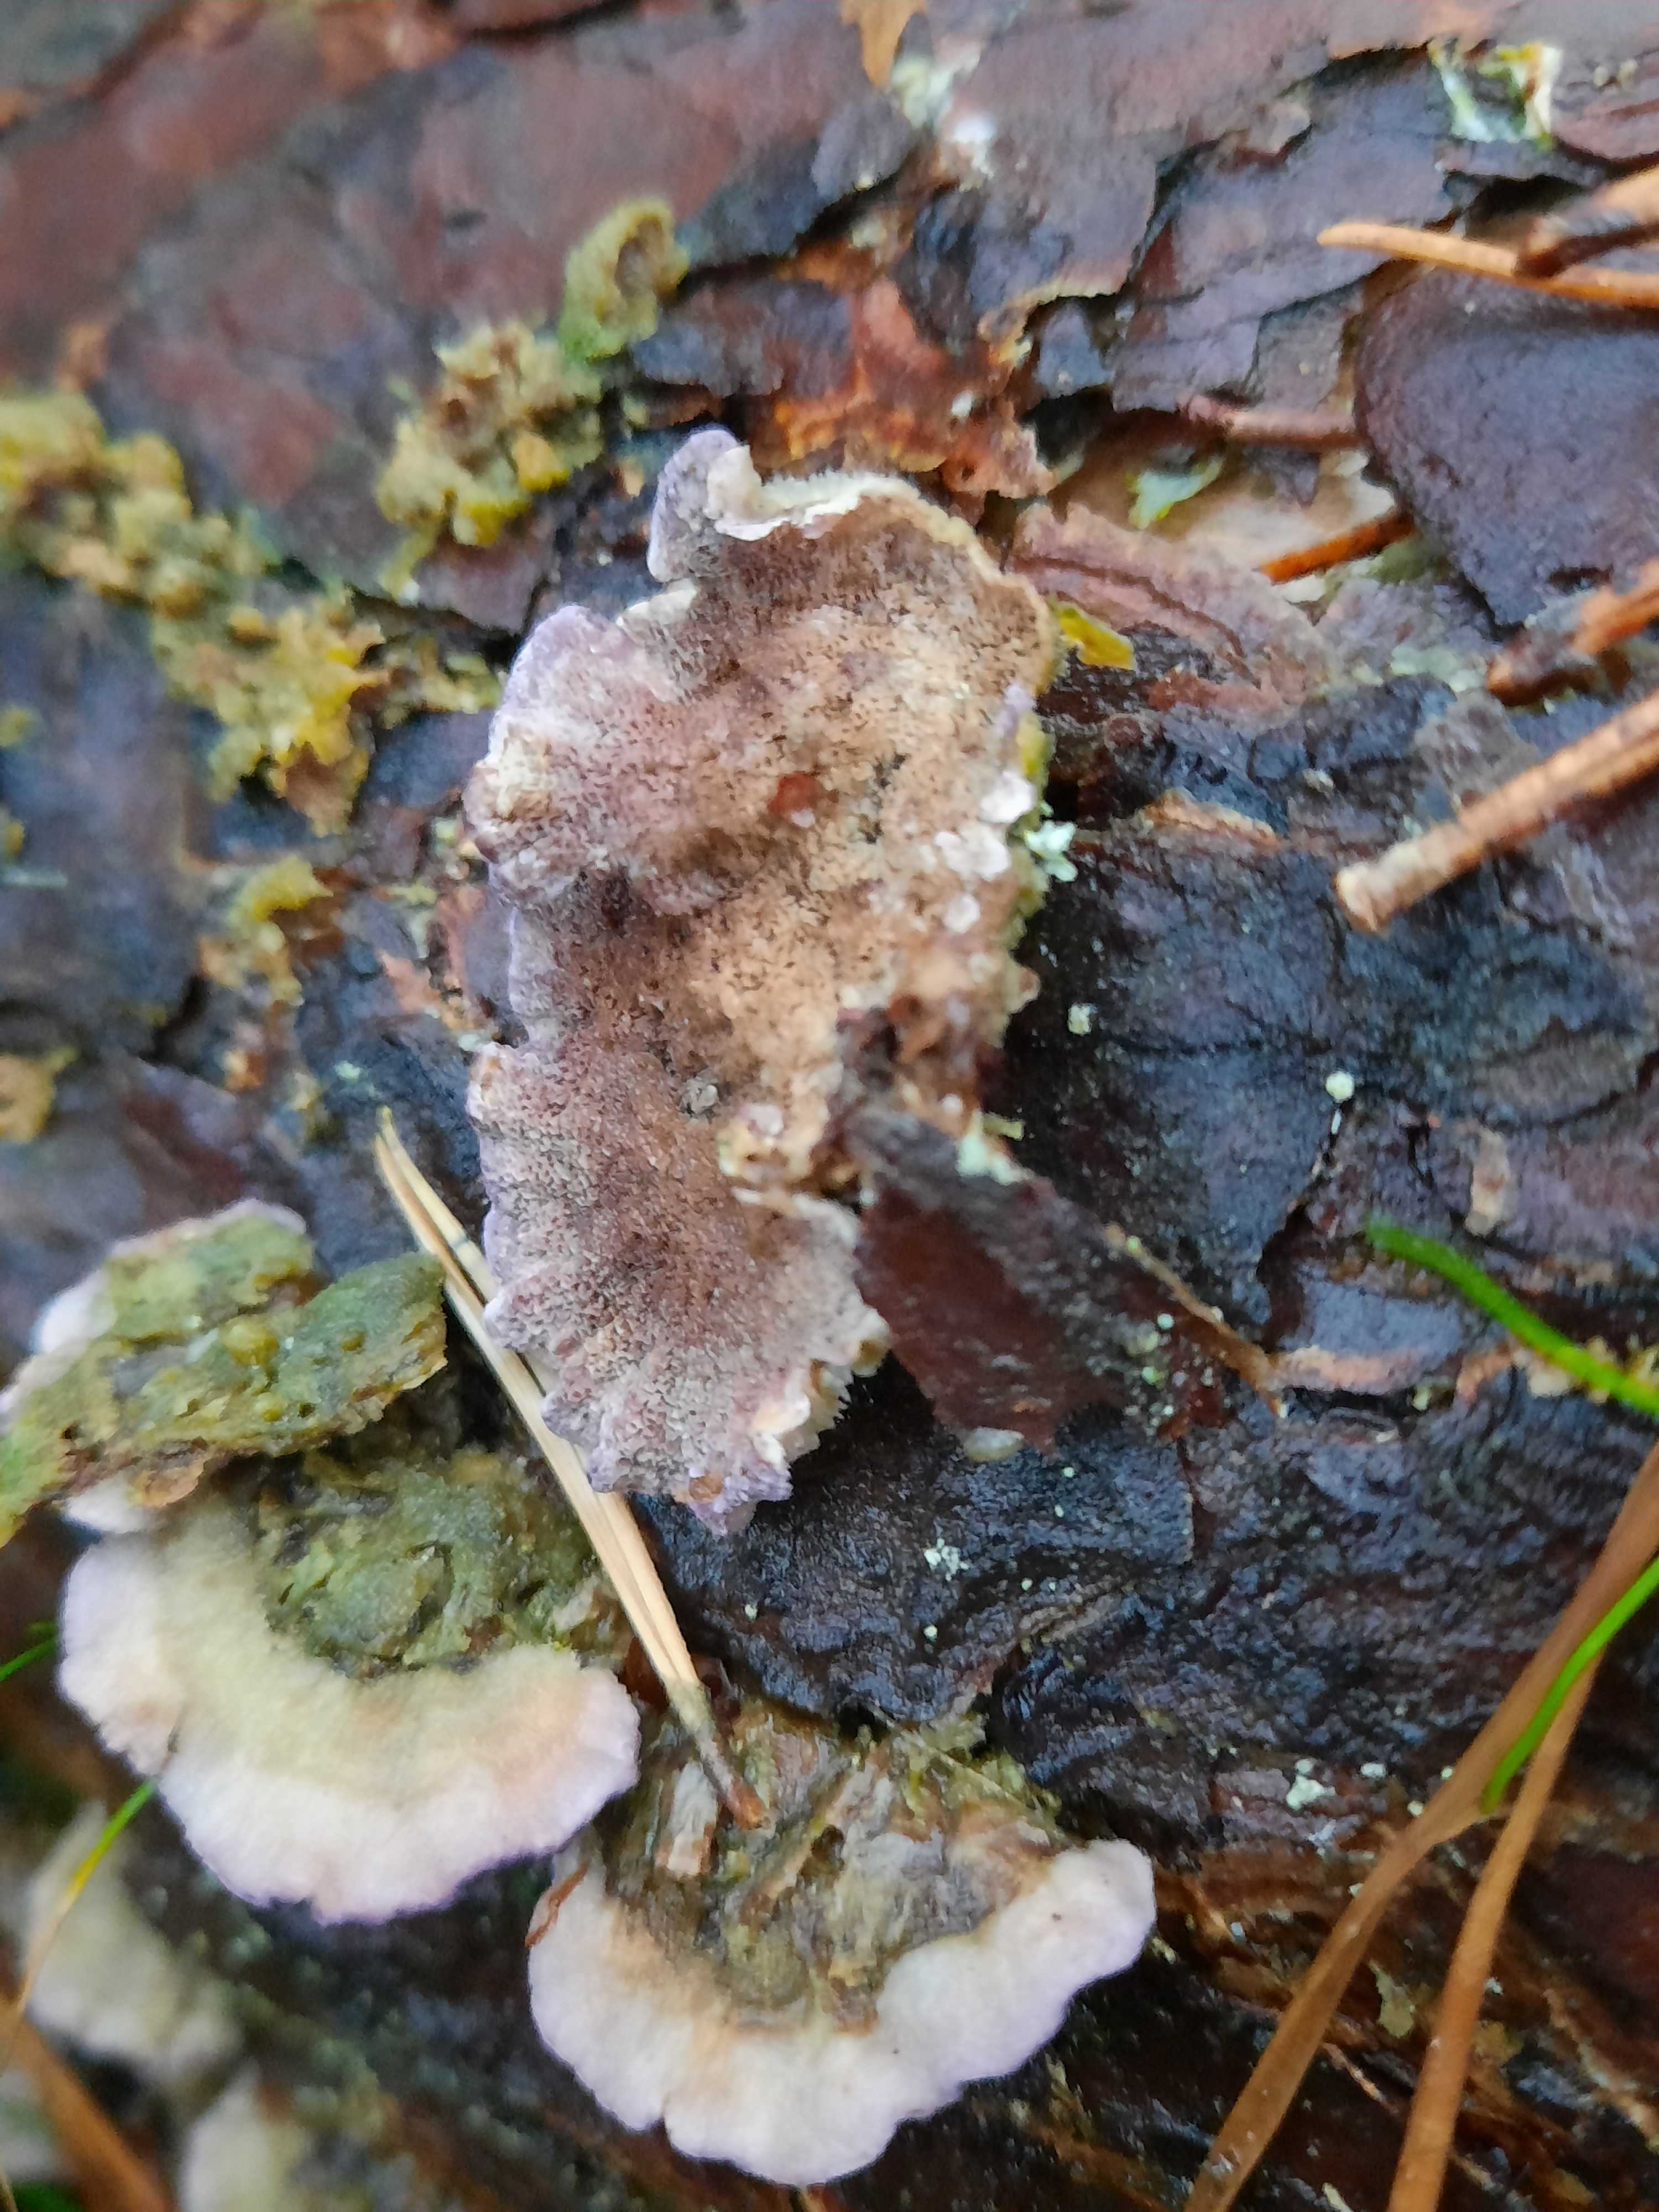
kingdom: Fungi
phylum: Basidiomycota
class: Agaricomycetes
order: Hymenochaetales
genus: Trichaptum
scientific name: Trichaptum abietinum
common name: almindelig violporesvamp
